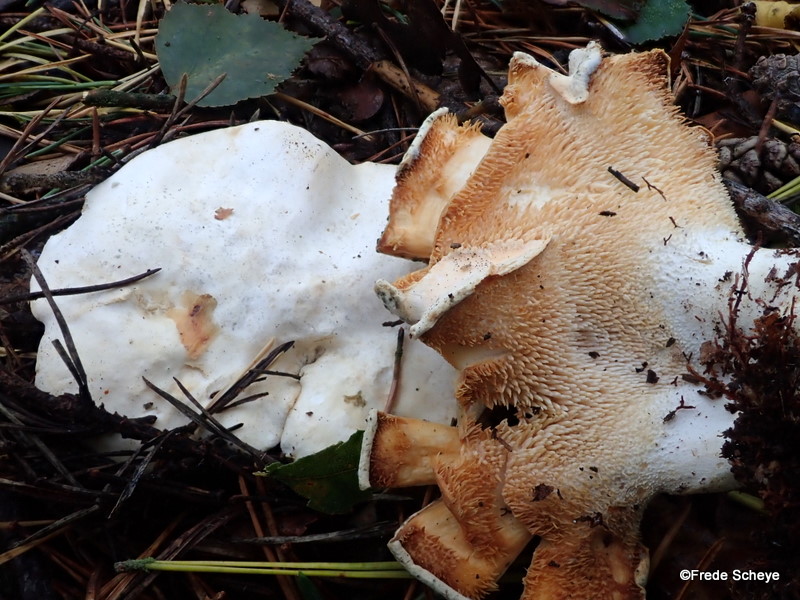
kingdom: Fungi
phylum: Basidiomycota
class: Agaricomycetes
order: Cantharellales
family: Hydnaceae
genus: Hydnum
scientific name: Hydnum repandum
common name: almindelig pigsvamp
